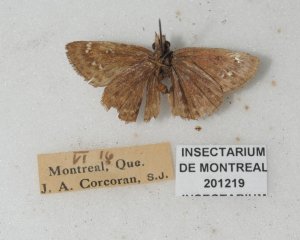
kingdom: Animalia
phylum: Arthropoda
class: Insecta
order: Lepidoptera
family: Hesperiidae
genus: Gesta
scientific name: Gesta
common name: Columbine Duskywing
